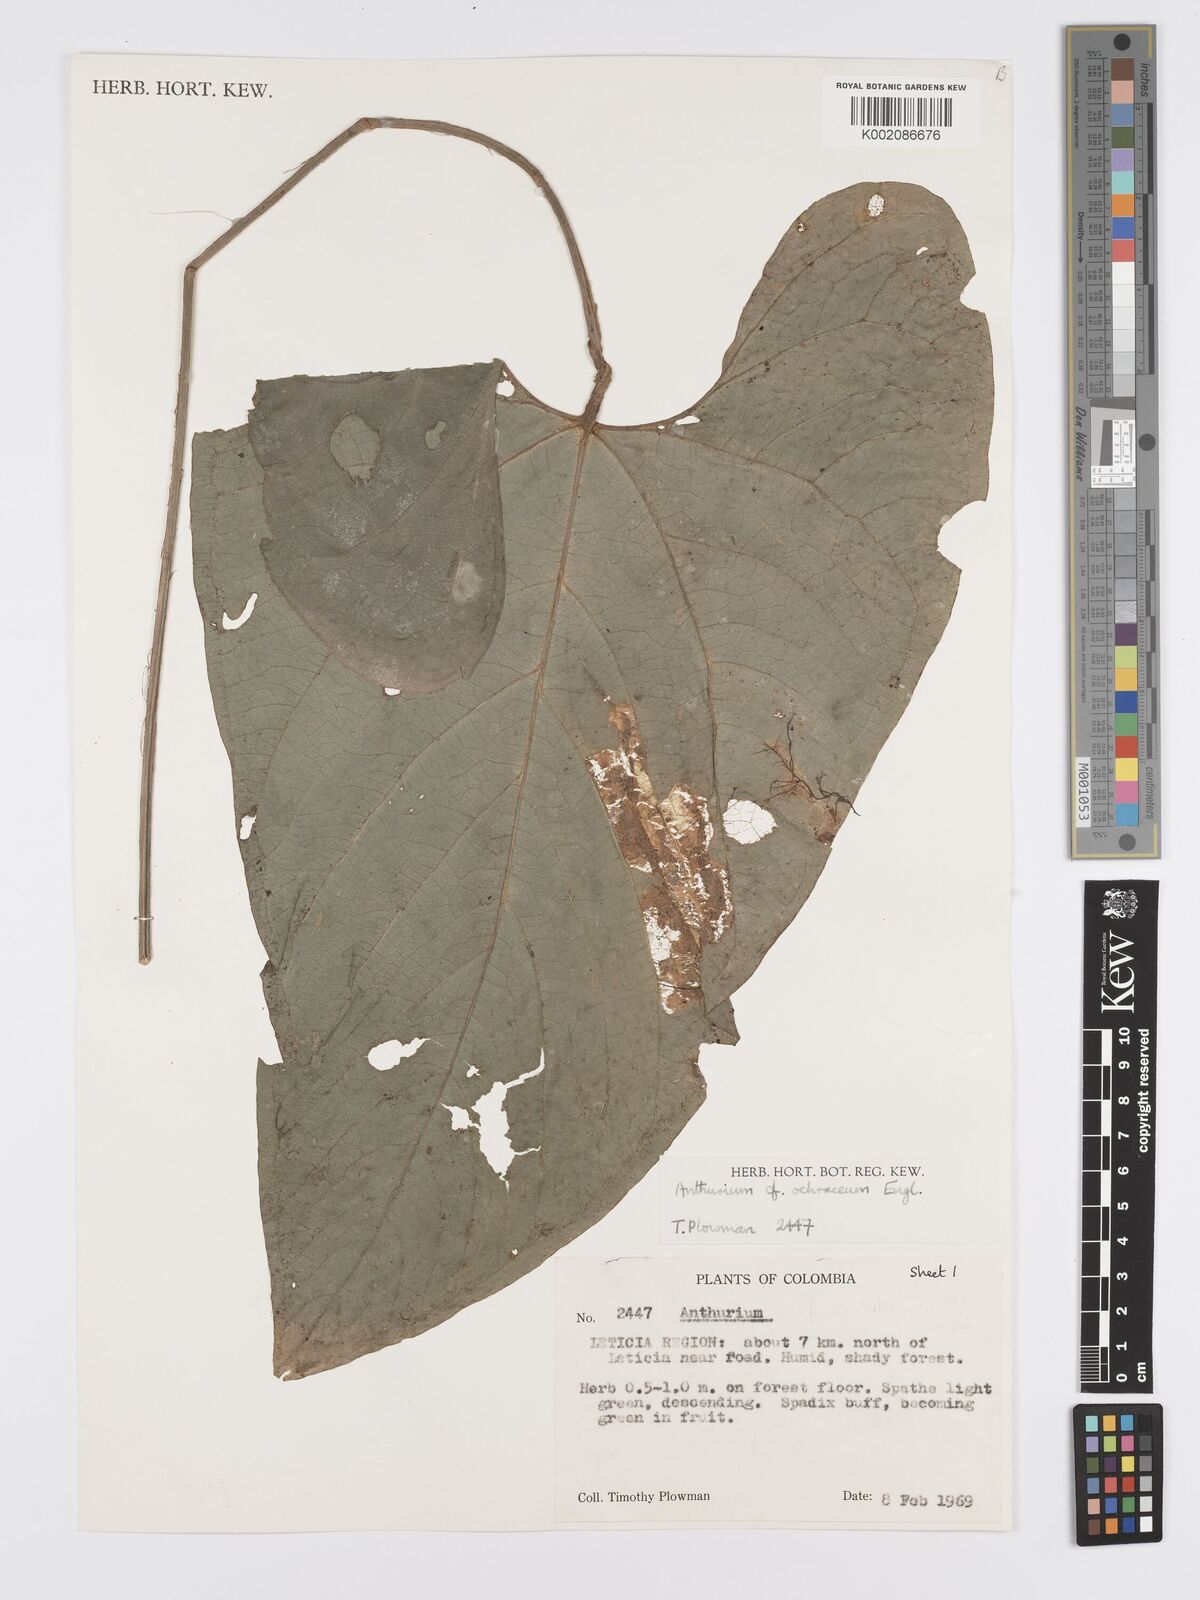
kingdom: Plantae
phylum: Tracheophyta
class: Liliopsida
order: Alismatales
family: Araceae
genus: Anthurium
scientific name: Anthurium multinervium
